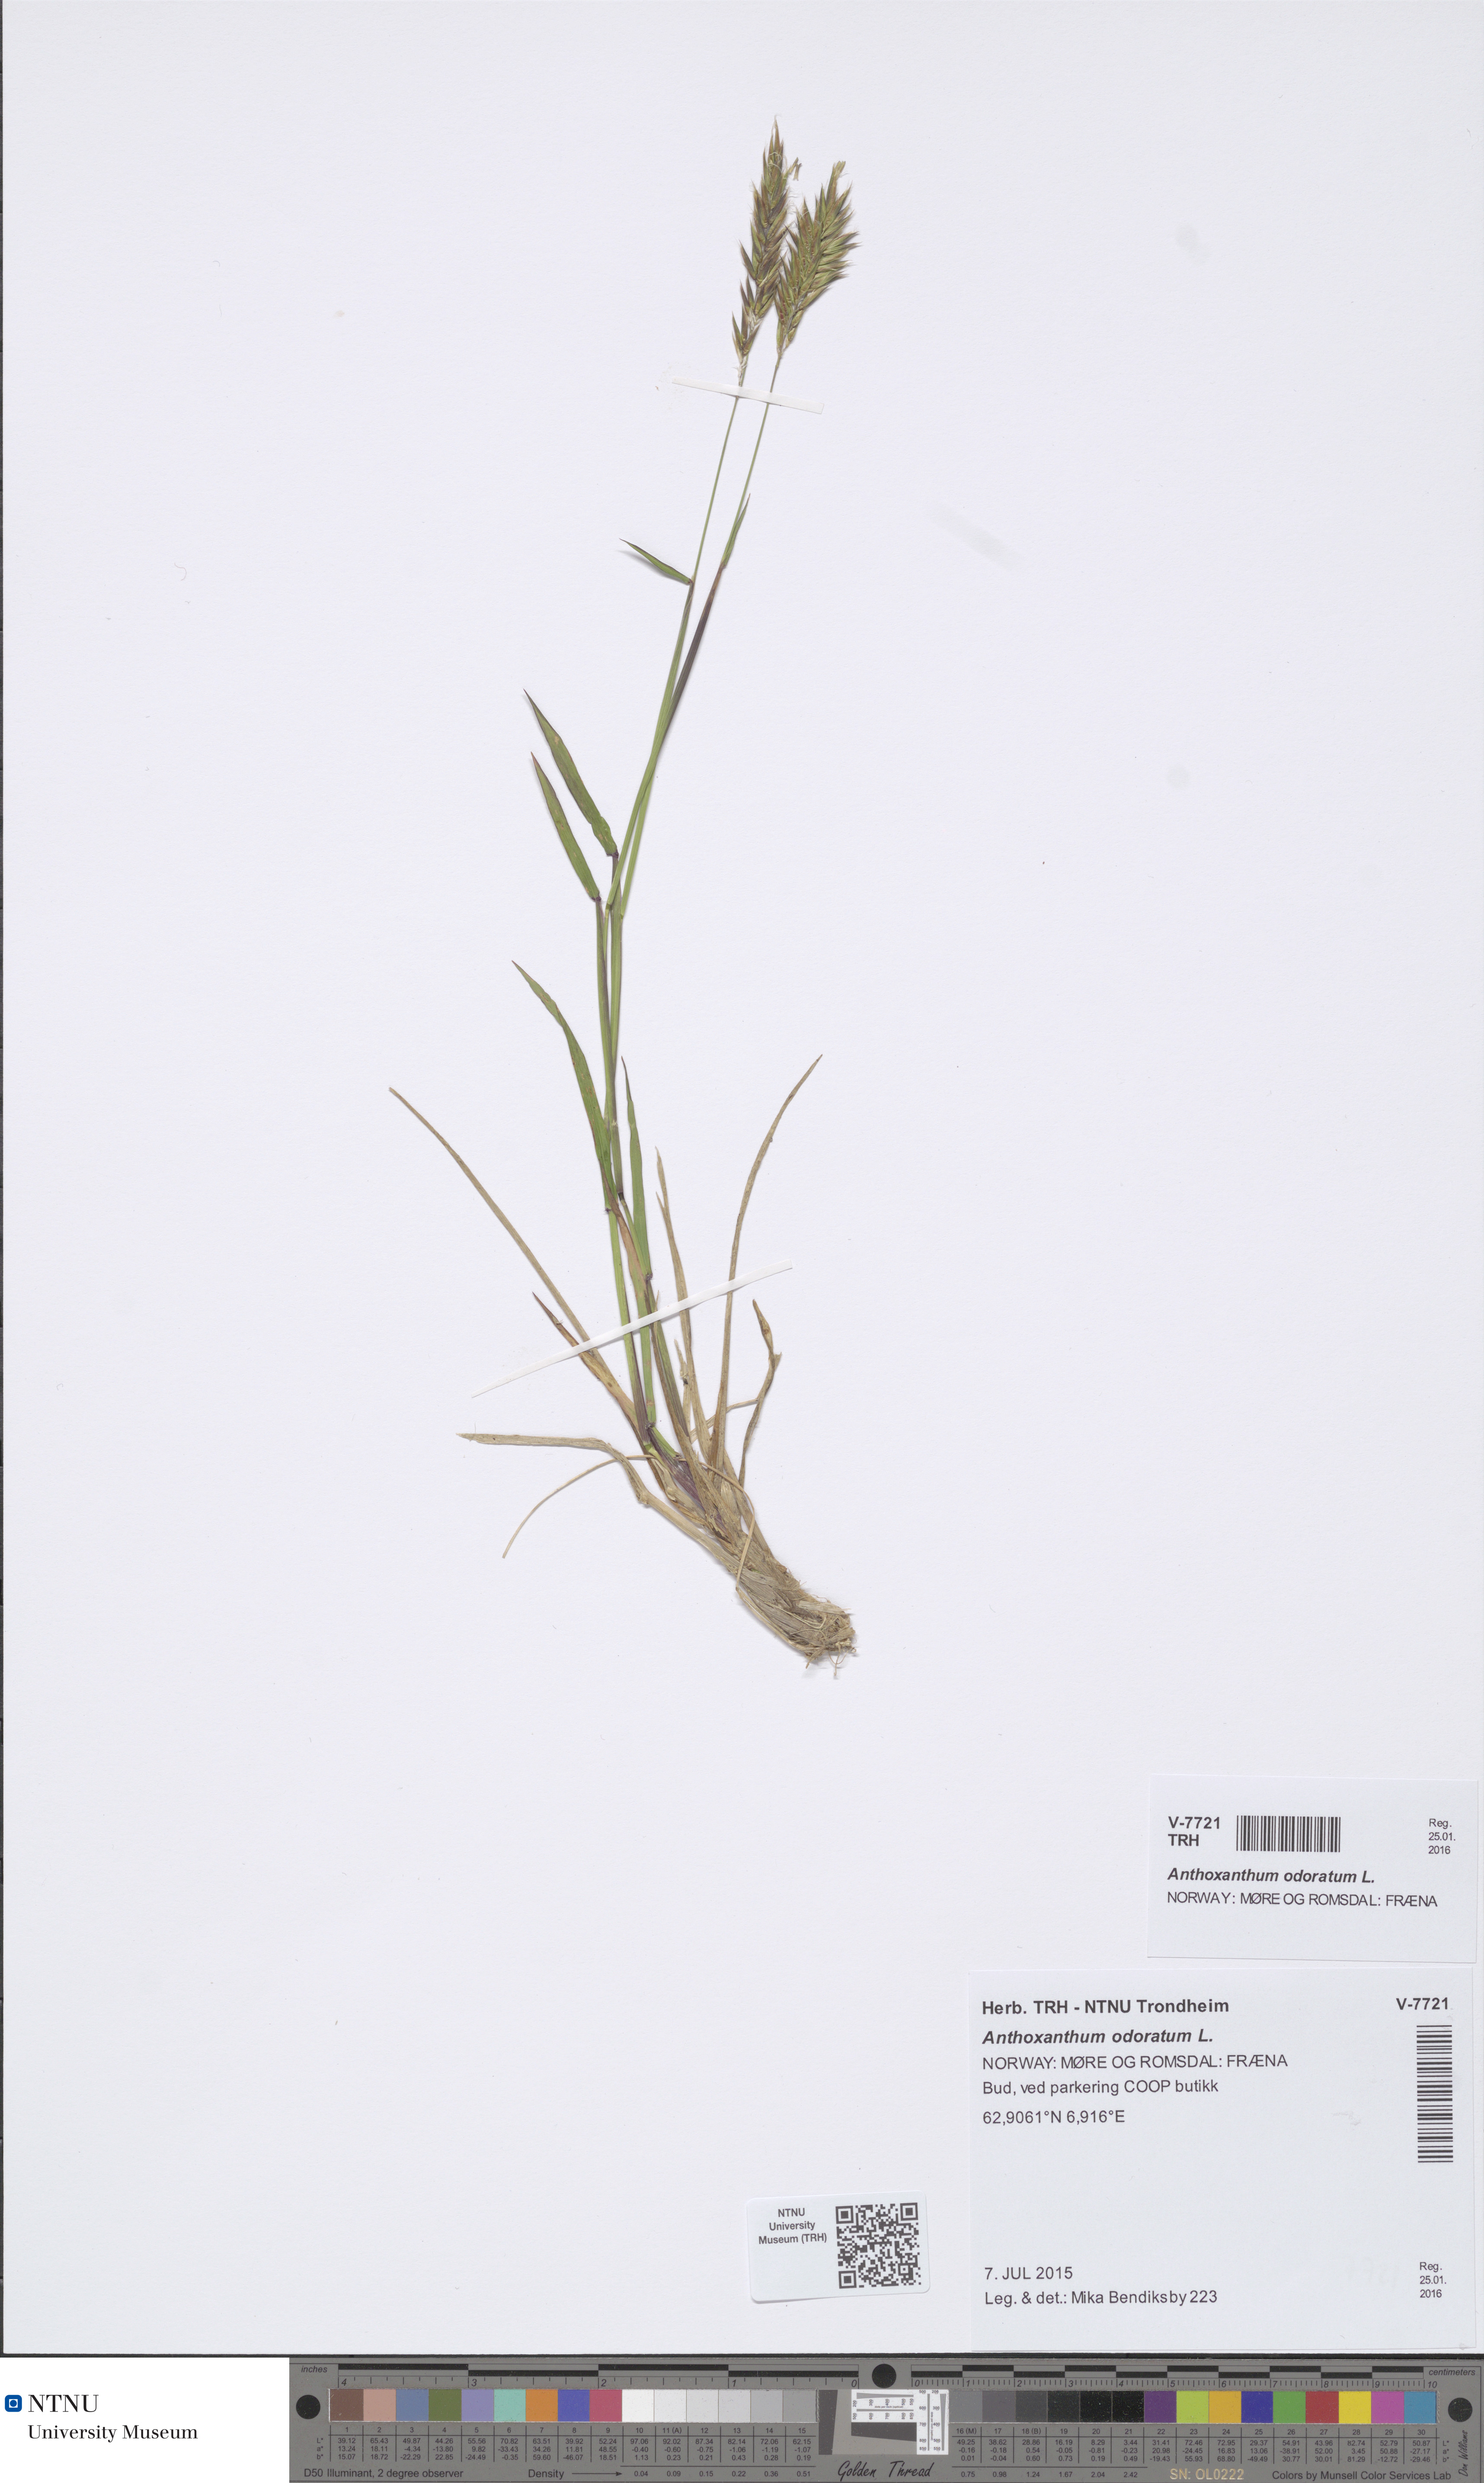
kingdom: Plantae
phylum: Tracheophyta
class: Liliopsida
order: Poales
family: Poaceae
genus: Anthoxanthum
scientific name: Anthoxanthum odoratum
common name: Sweet vernalgrass
